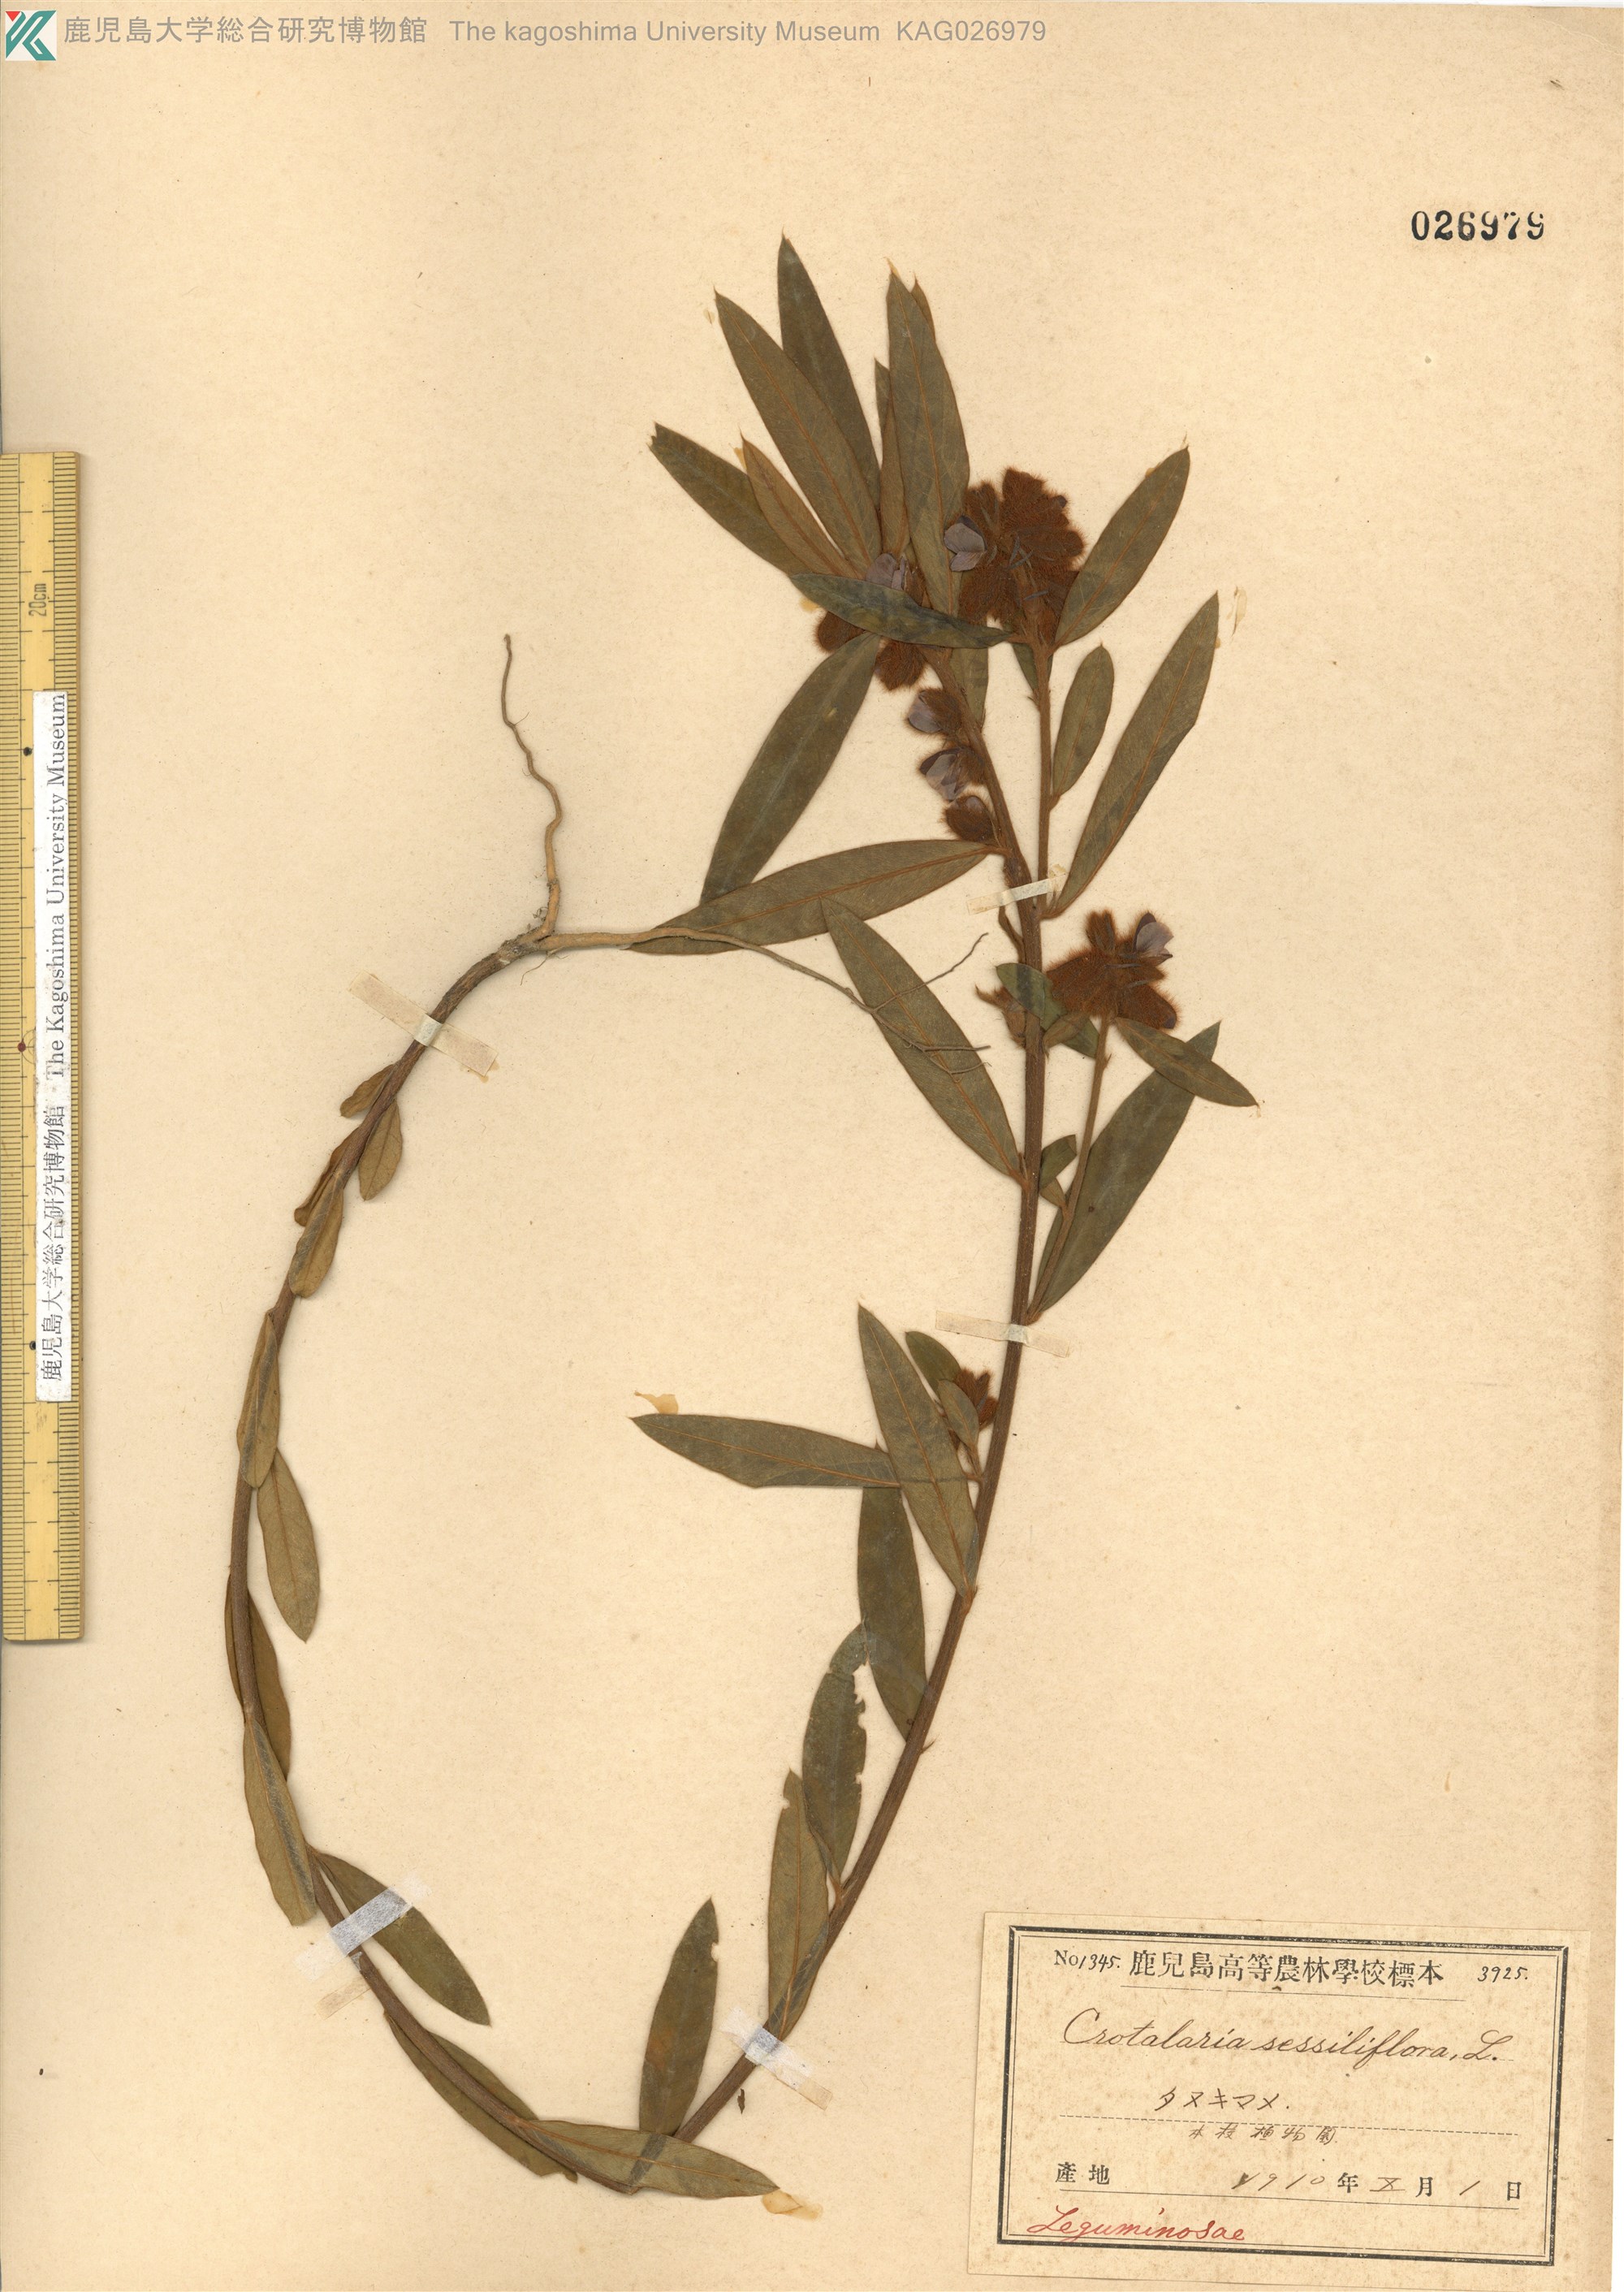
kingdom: Plantae
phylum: Tracheophyta
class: Magnoliopsida
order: Fabales
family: Fabaceae
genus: Crotalaria
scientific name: Crotalaria sessiliflora
